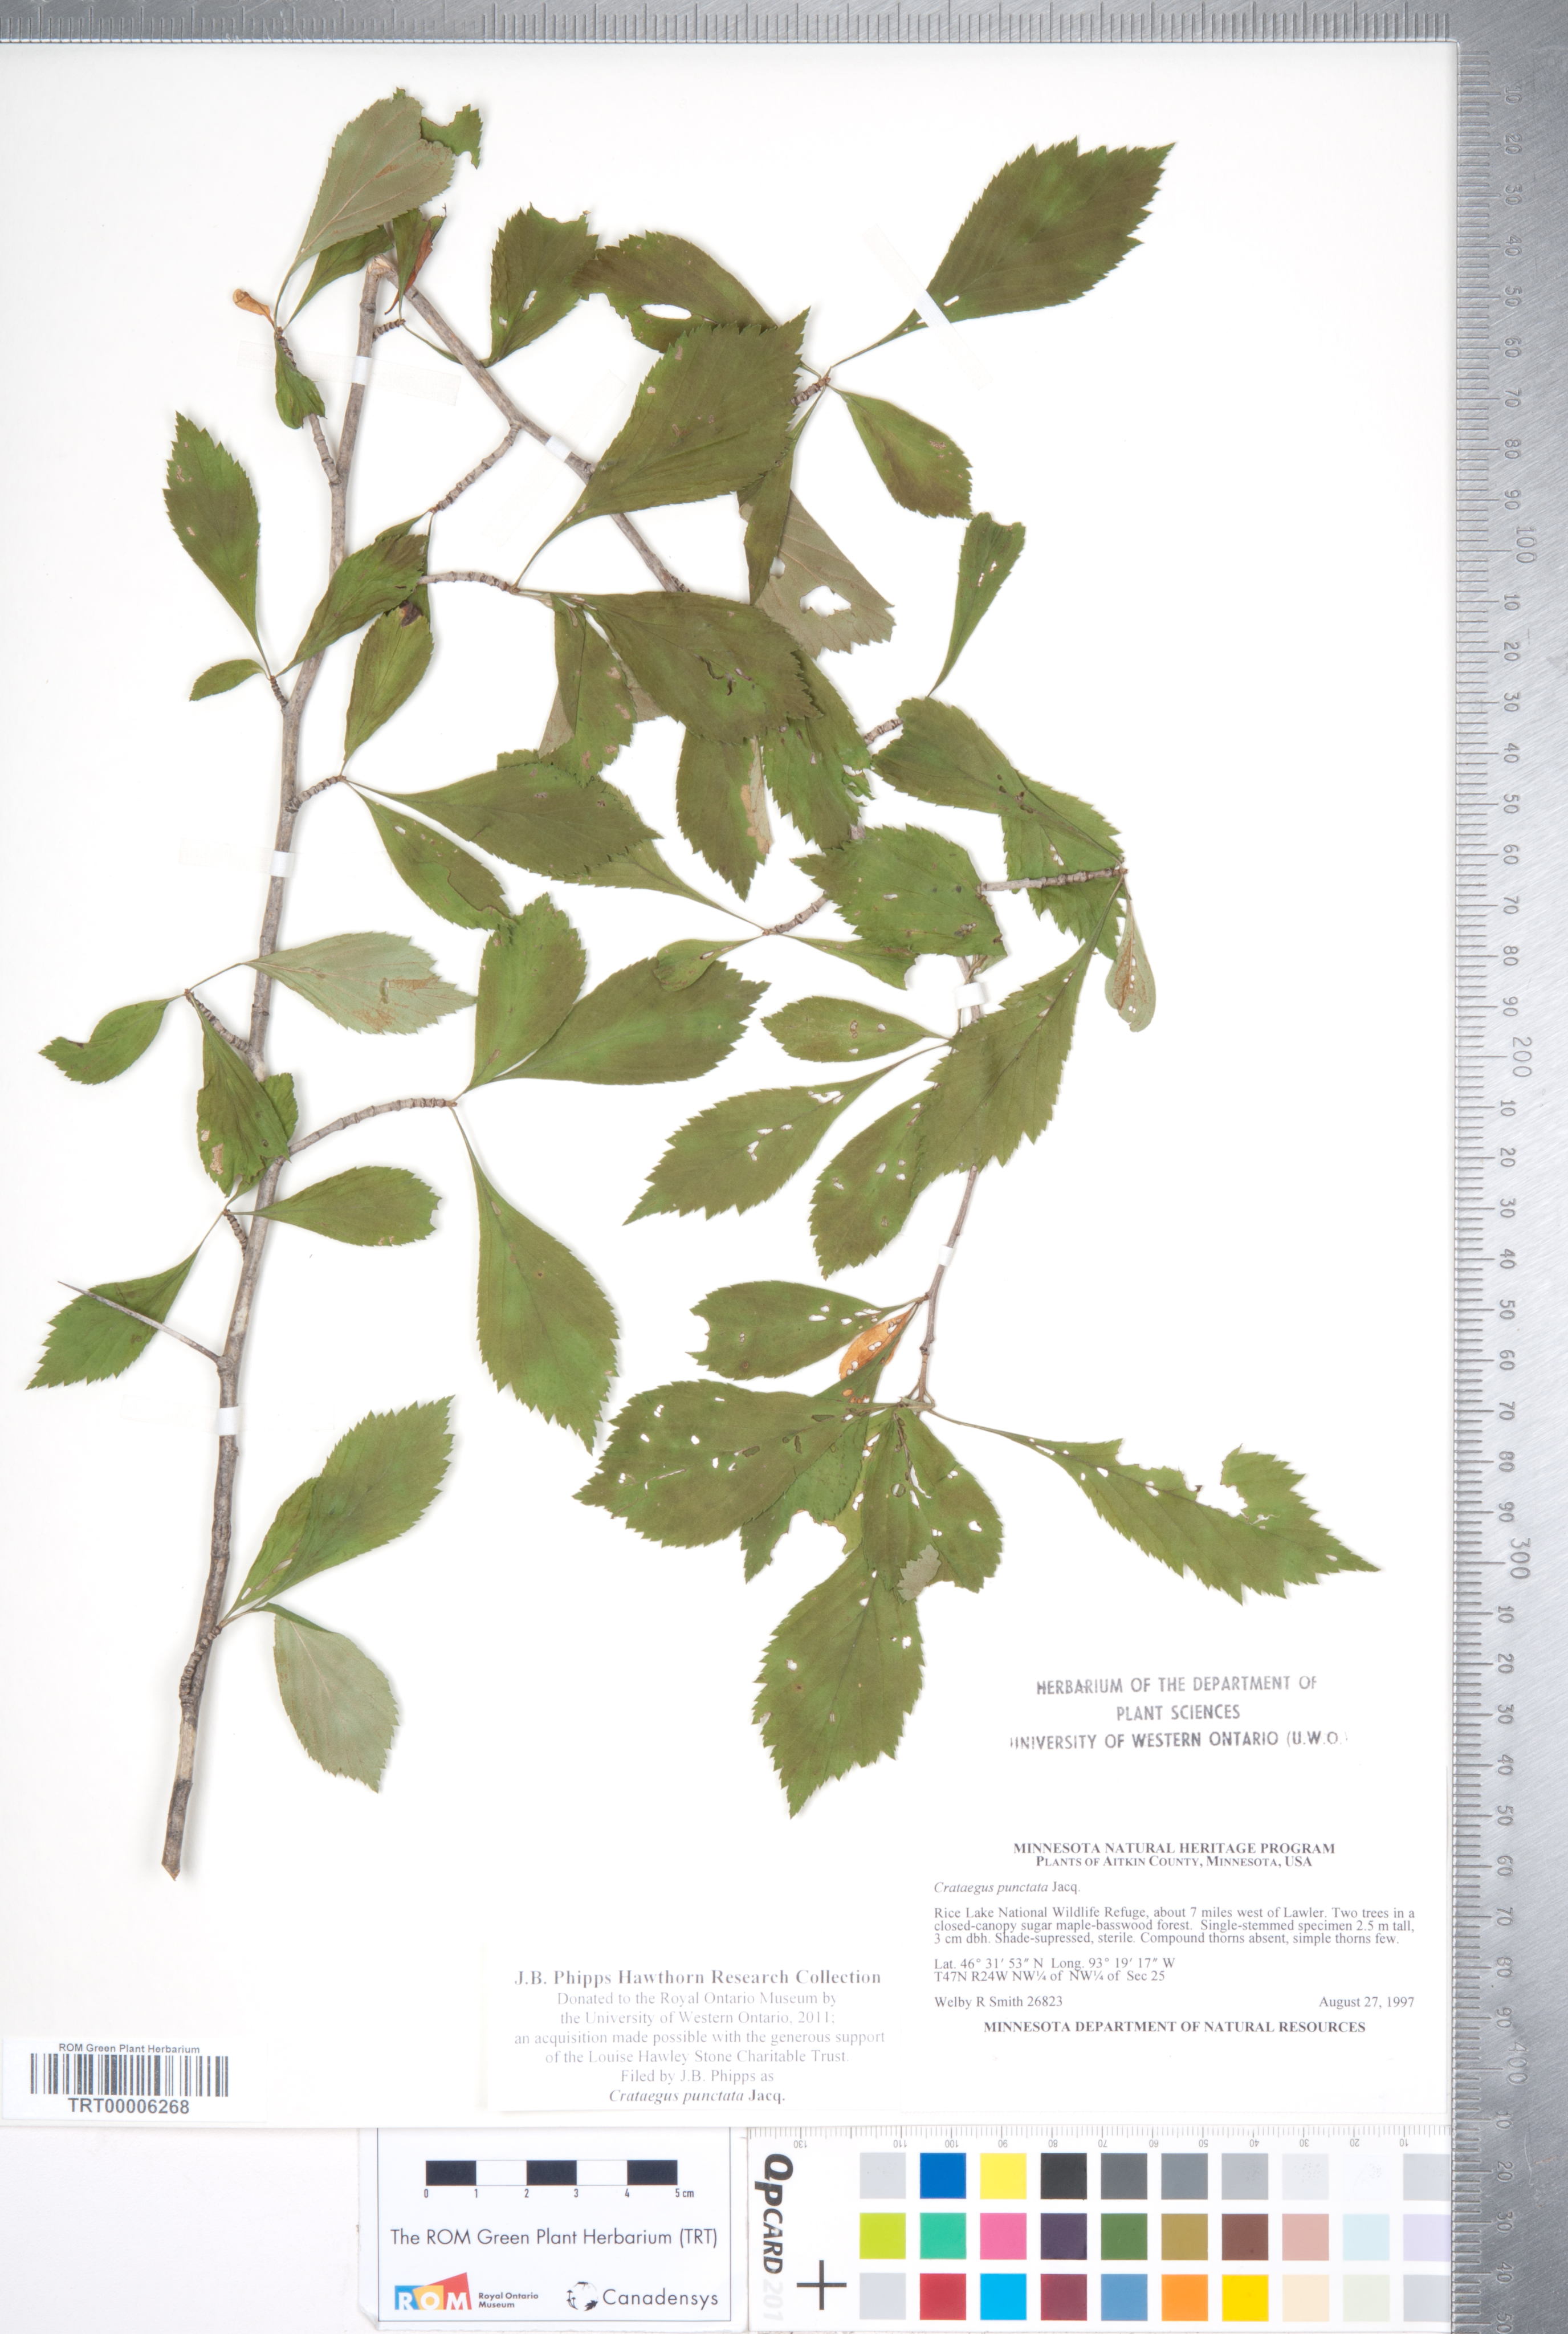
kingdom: Plantae
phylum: Tracheophyta
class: Magnoliopsida
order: Rosales
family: Rosaceae
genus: Crataegus
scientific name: Crataegus punctata
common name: Dotted hawthorn
